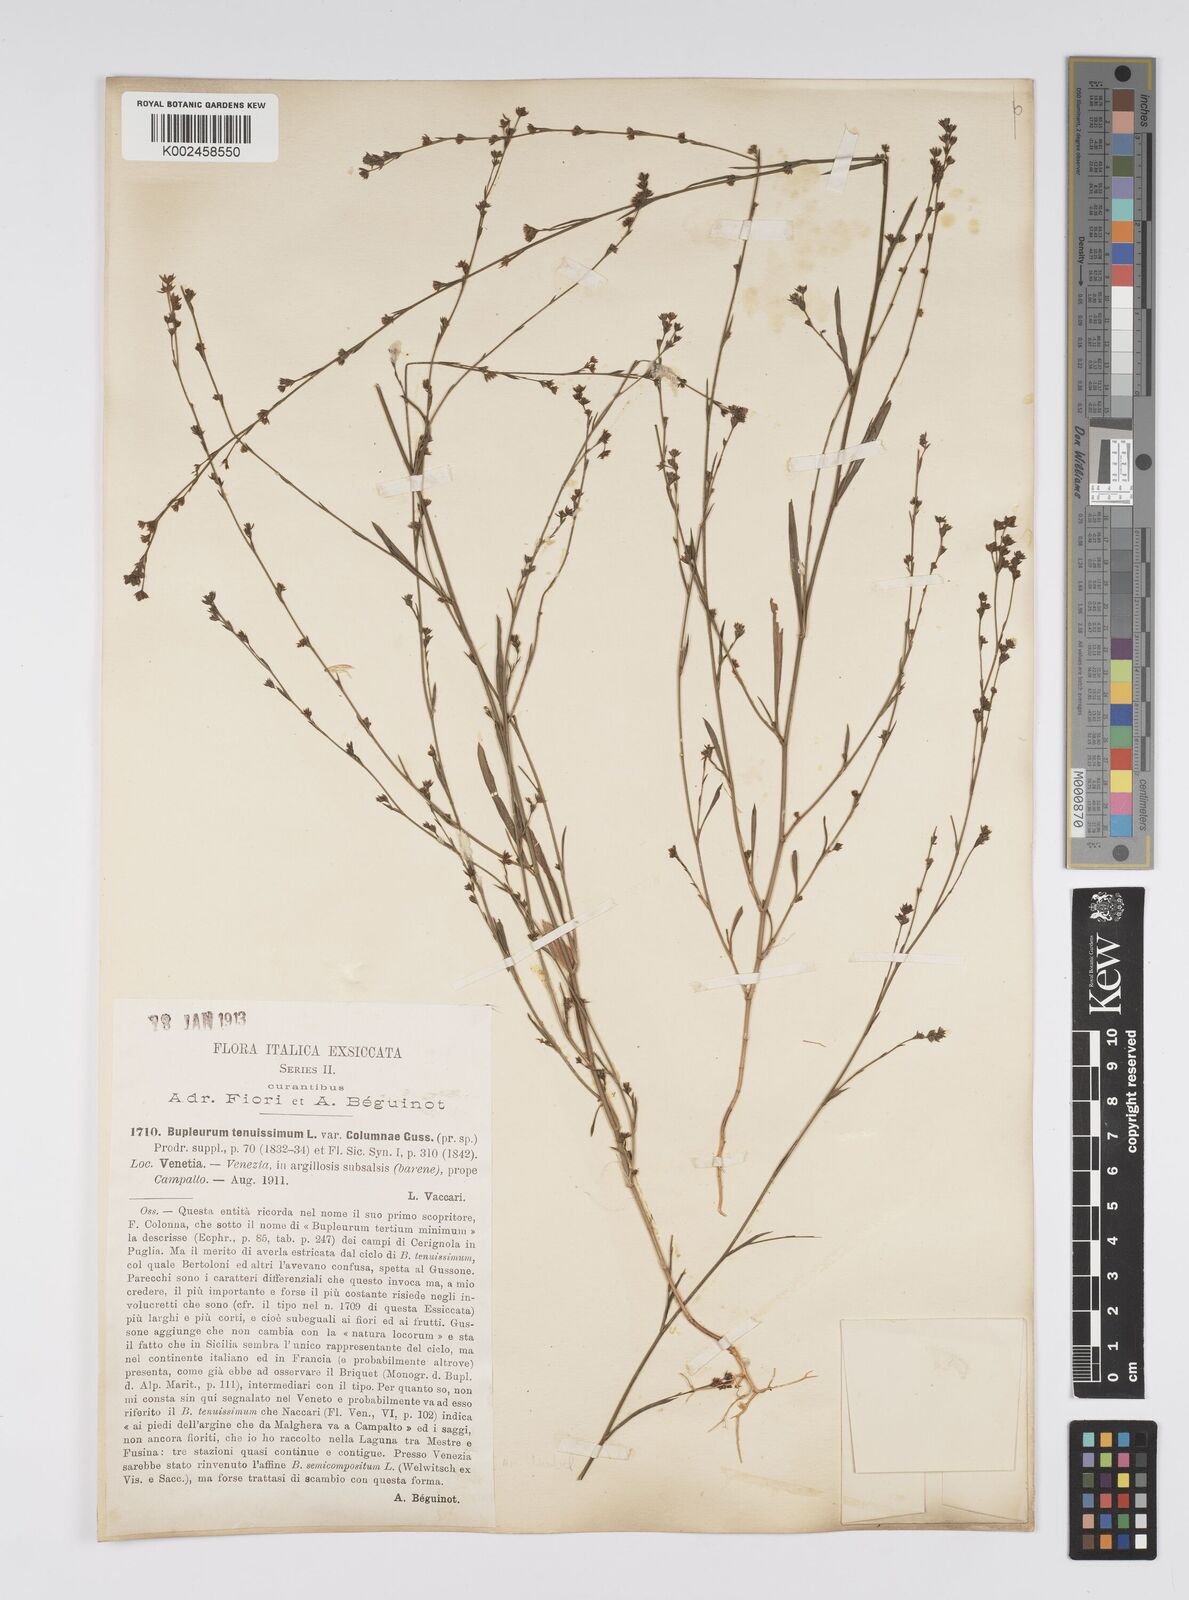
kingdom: Plantae
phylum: Tracheophyta
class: Magnoliopsida
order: Apiales
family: Apiaceae
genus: Bupleurum
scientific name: Bupleurum tenuissimum
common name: Slender hare's-ear
